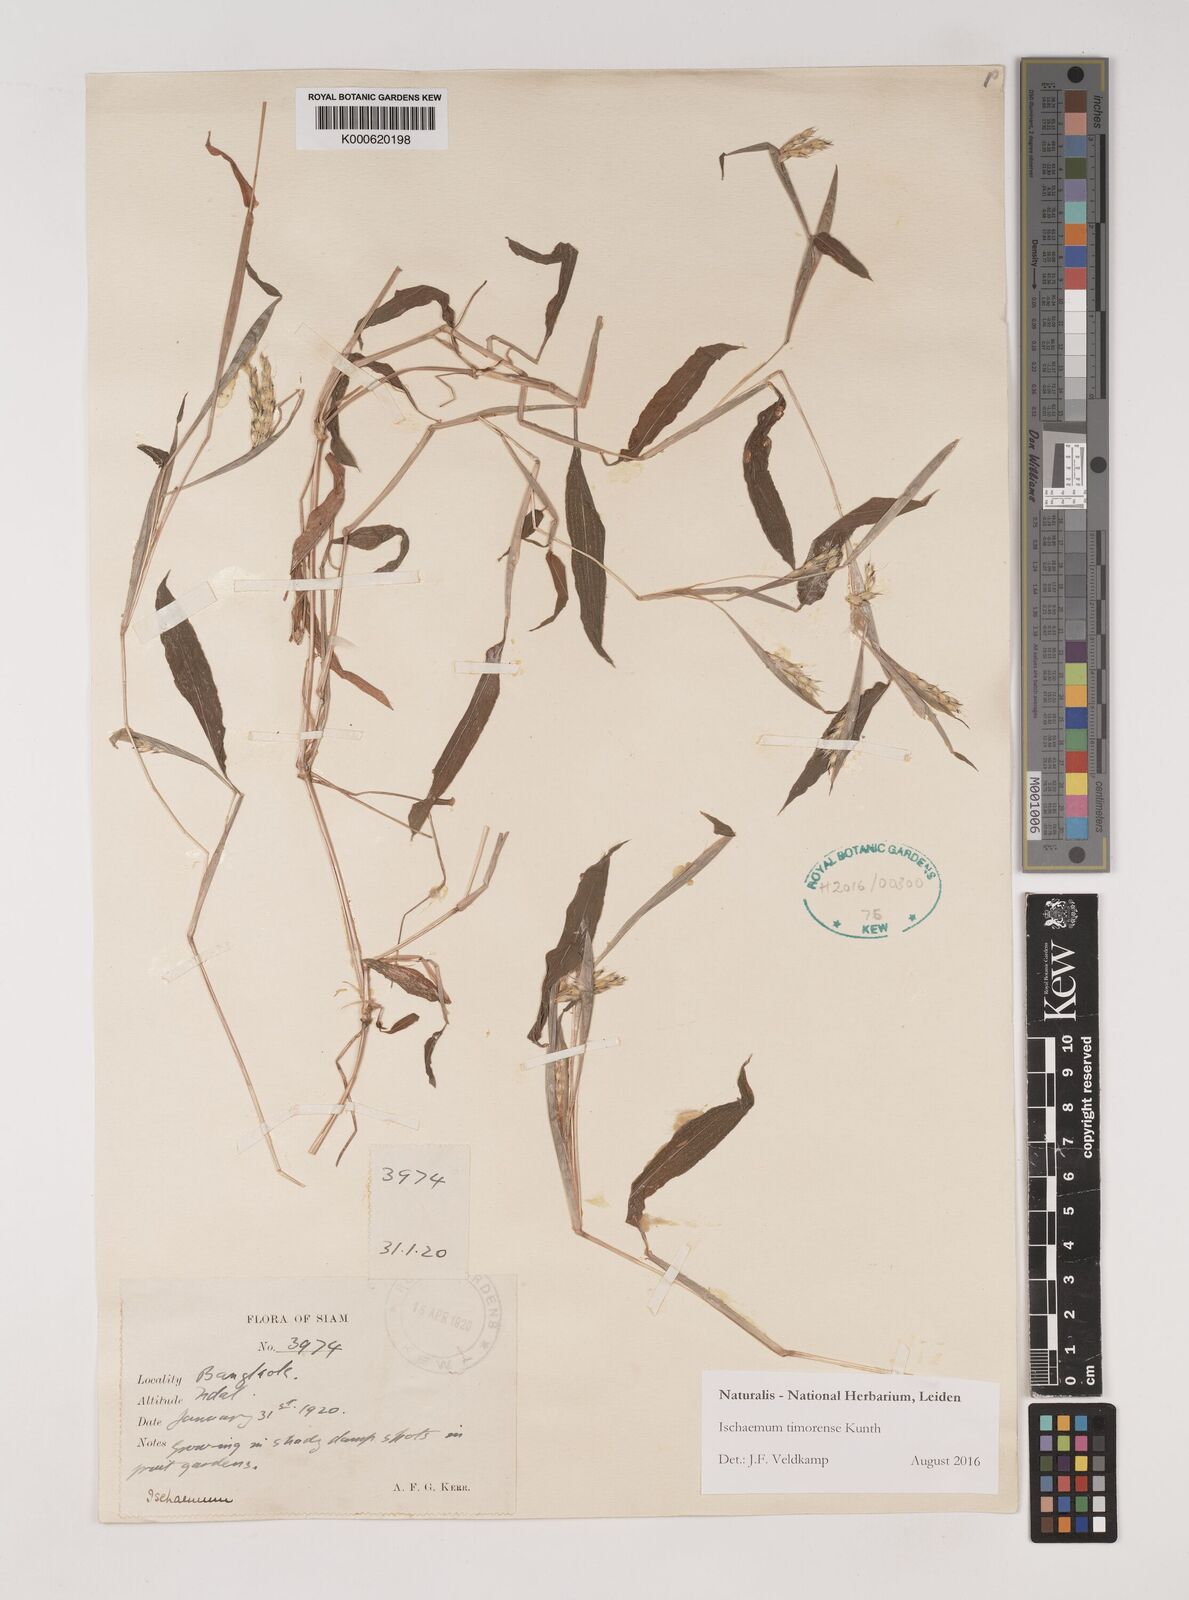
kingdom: Plantae
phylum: Tracheophyta
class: Liliopsida
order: Poales
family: Poaceae
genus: Ischaemum
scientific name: Ischaemum timorense
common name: Stalkleaf murainagrass
